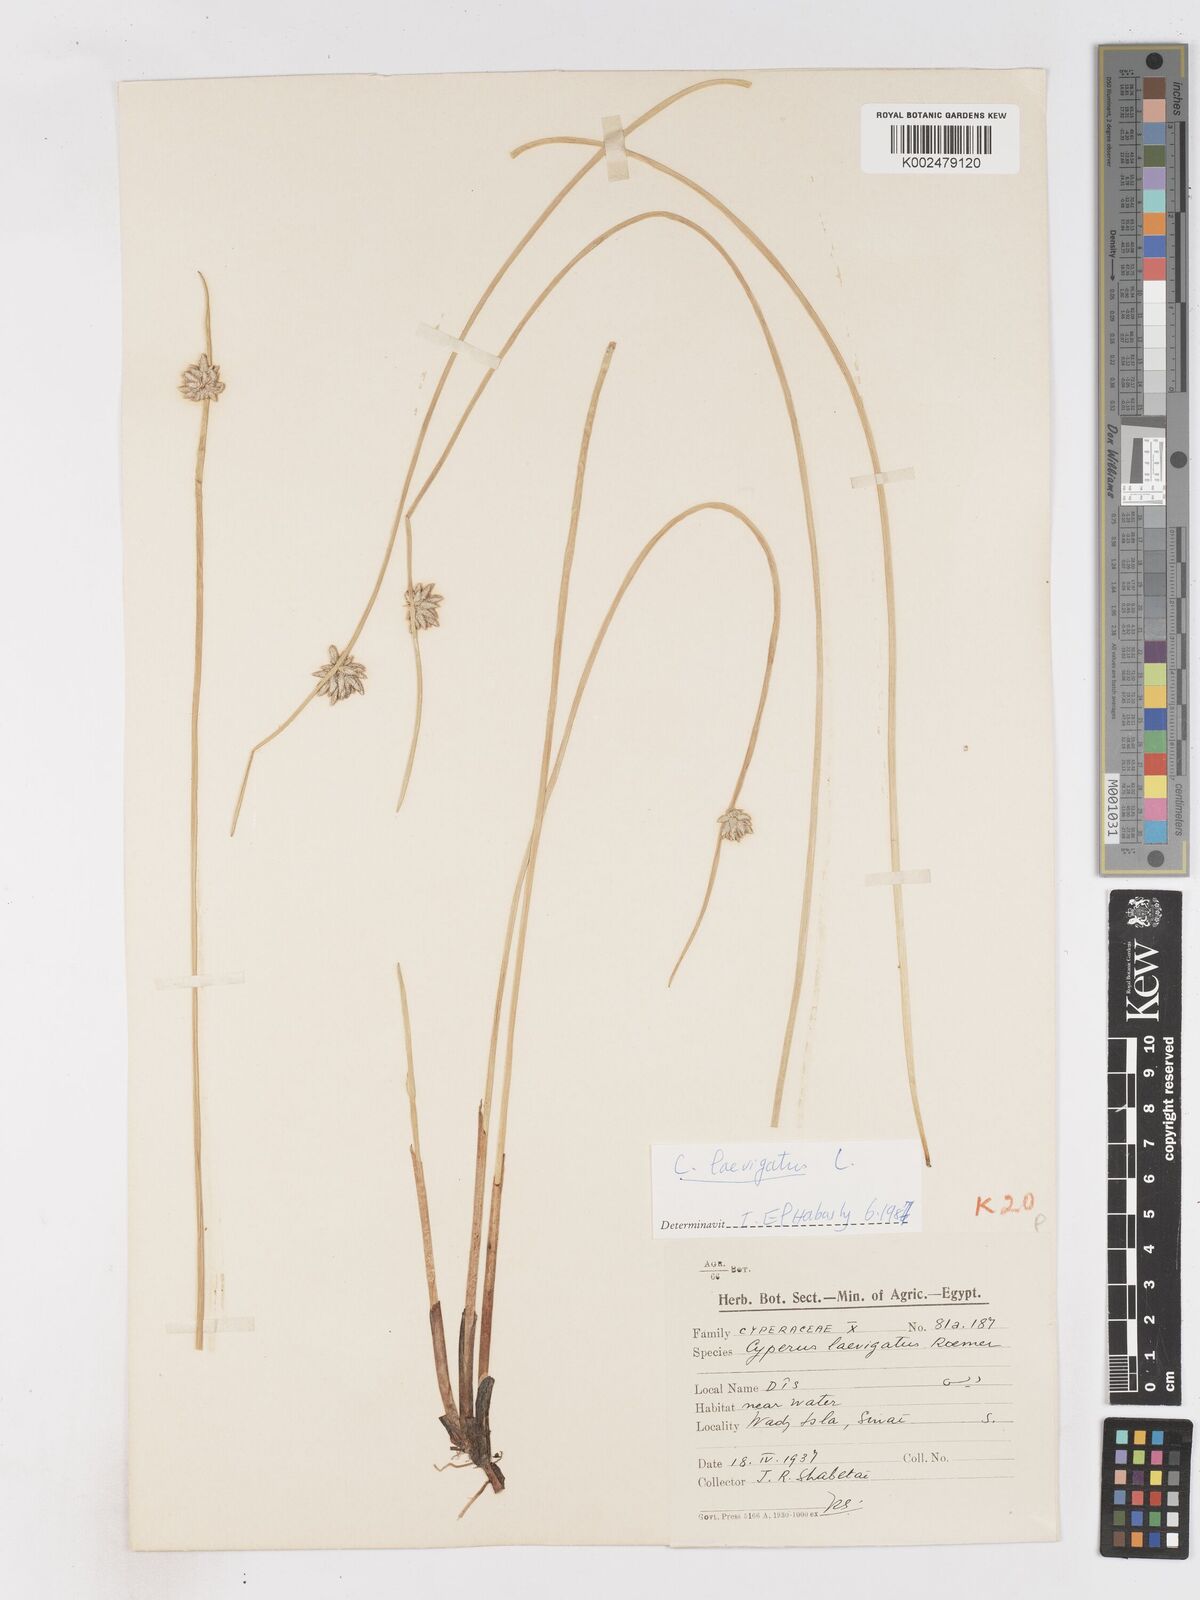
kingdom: Plantae
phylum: Tracheophyta
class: Liliopsida
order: Poales
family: Cyperaceae
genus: Cyperus
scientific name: Cyperus laevigatus
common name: Smooth flat sedge
